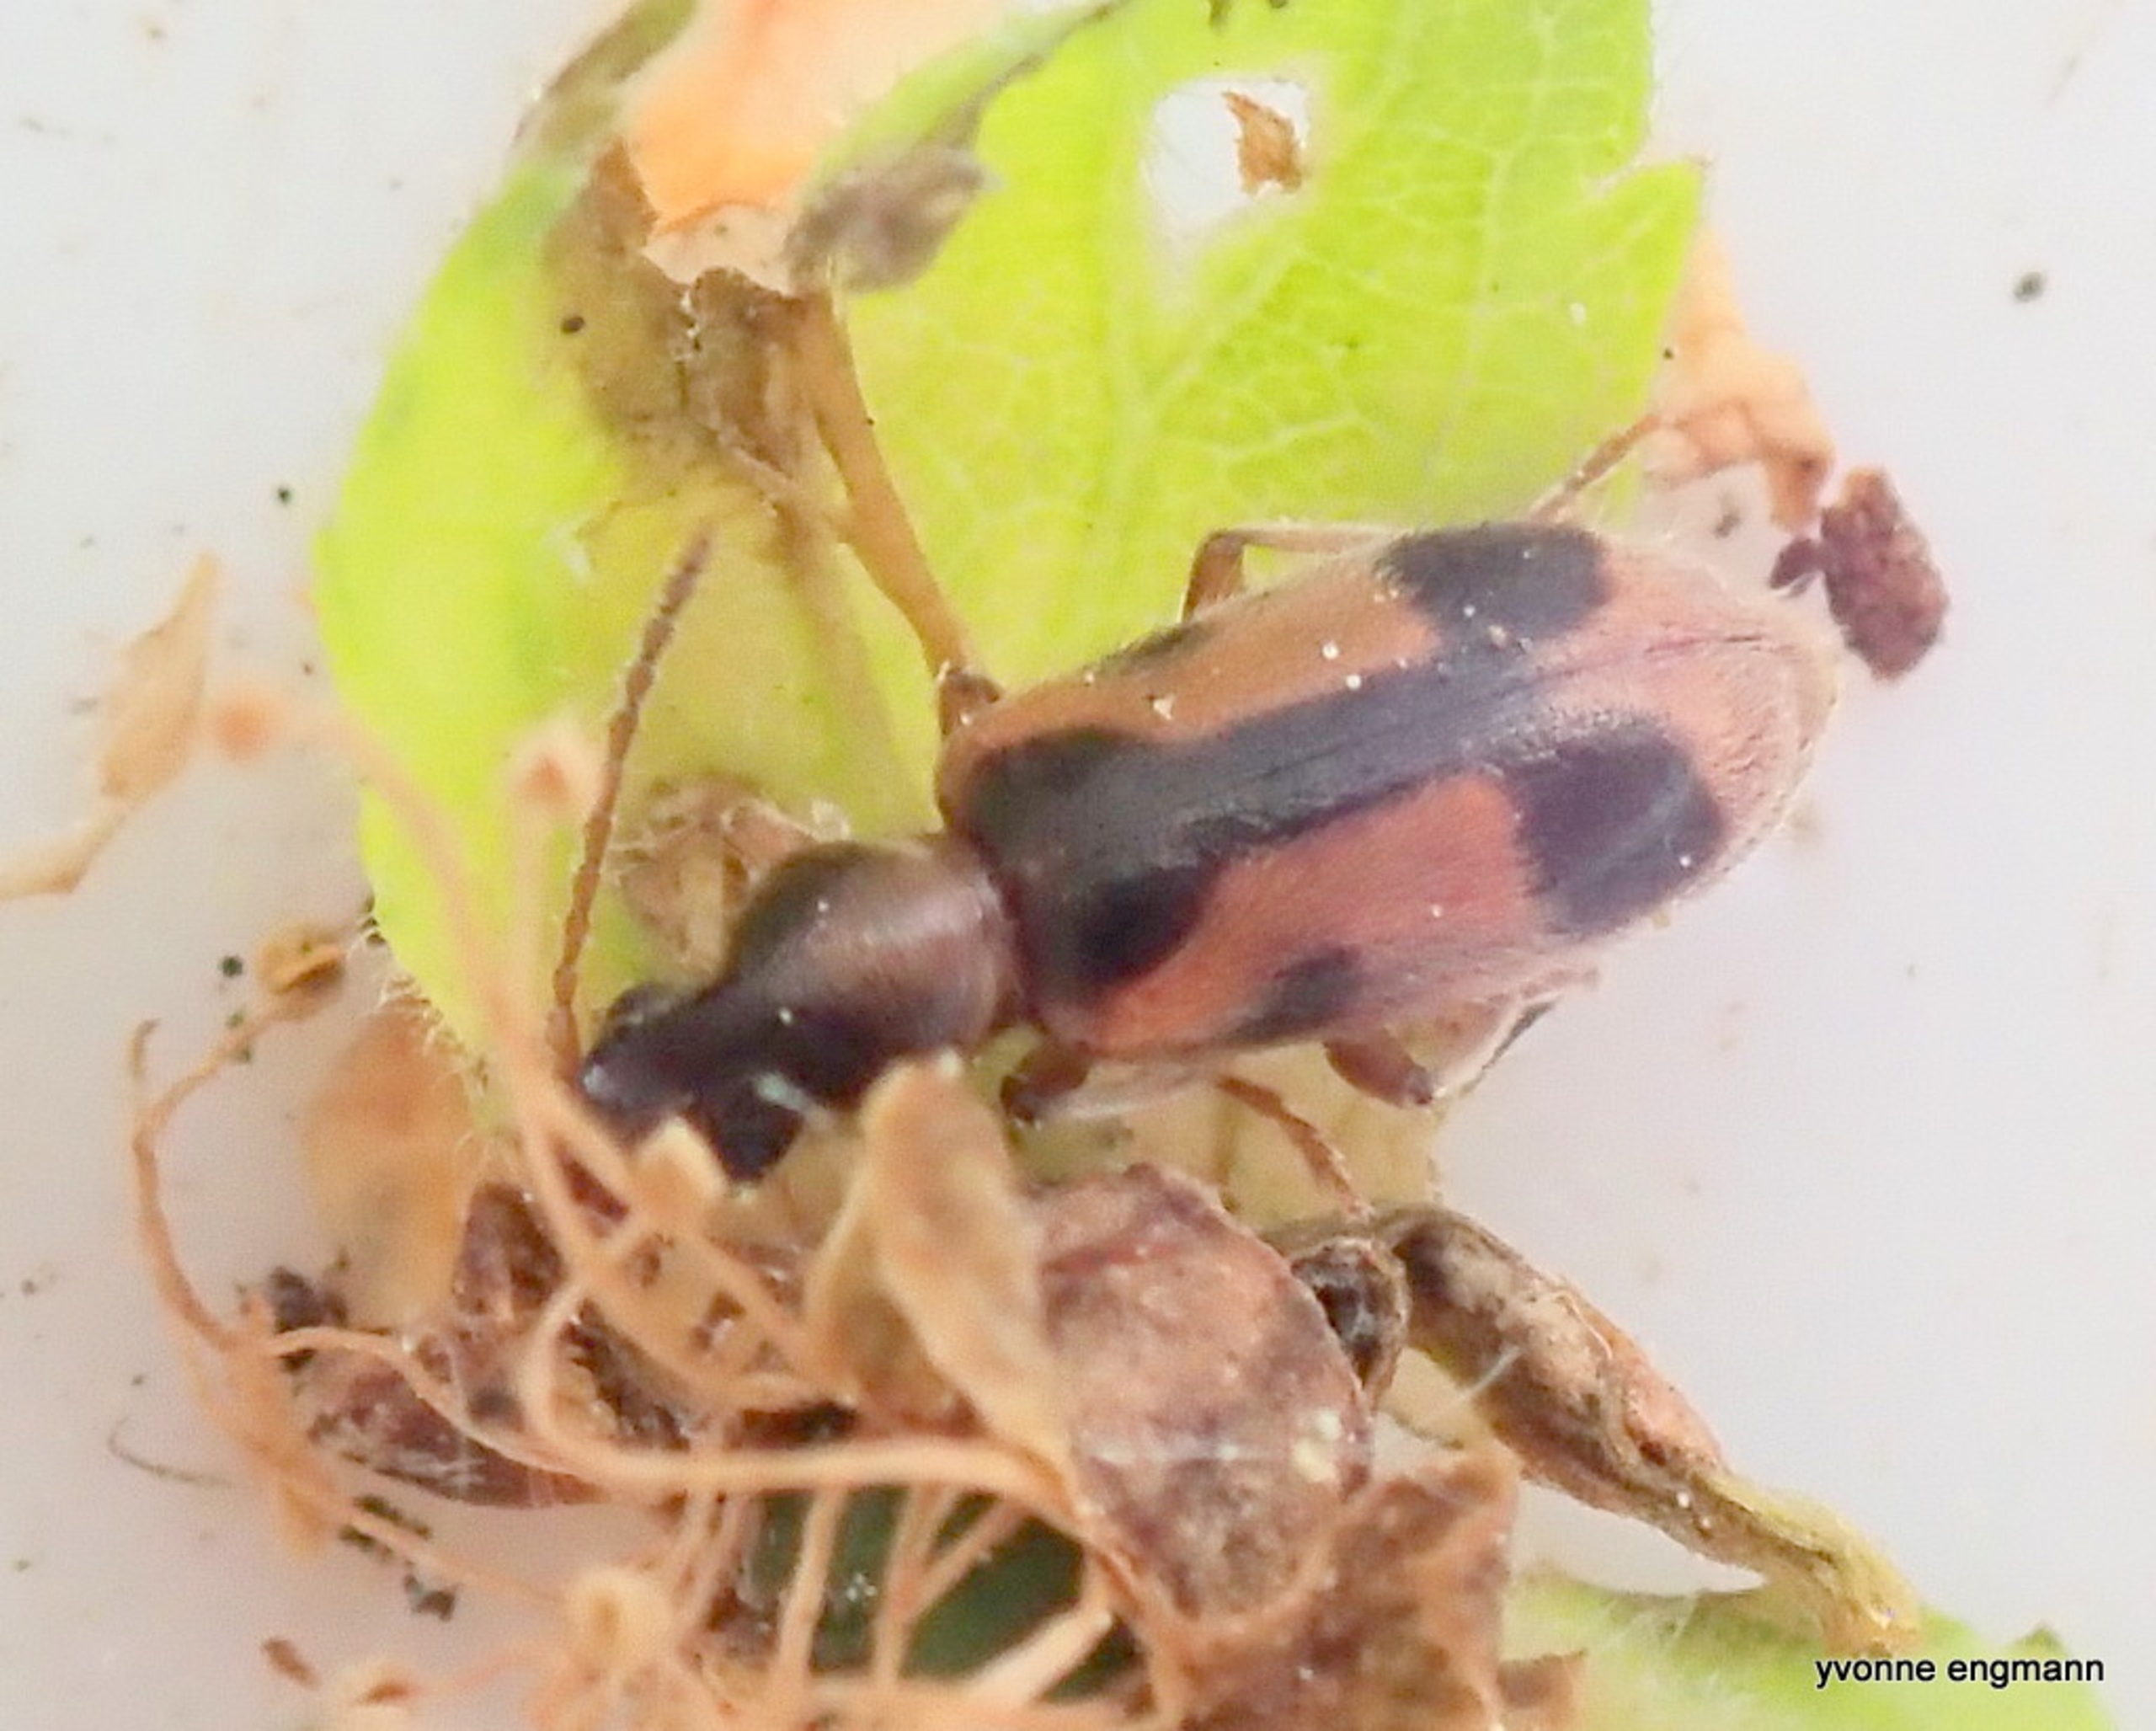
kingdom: Animalia
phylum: Arthropoda
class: Insecta
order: Coleoptera
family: Anthicidae
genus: Notoxus
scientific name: Notoxus monoceros
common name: Enhjørning
